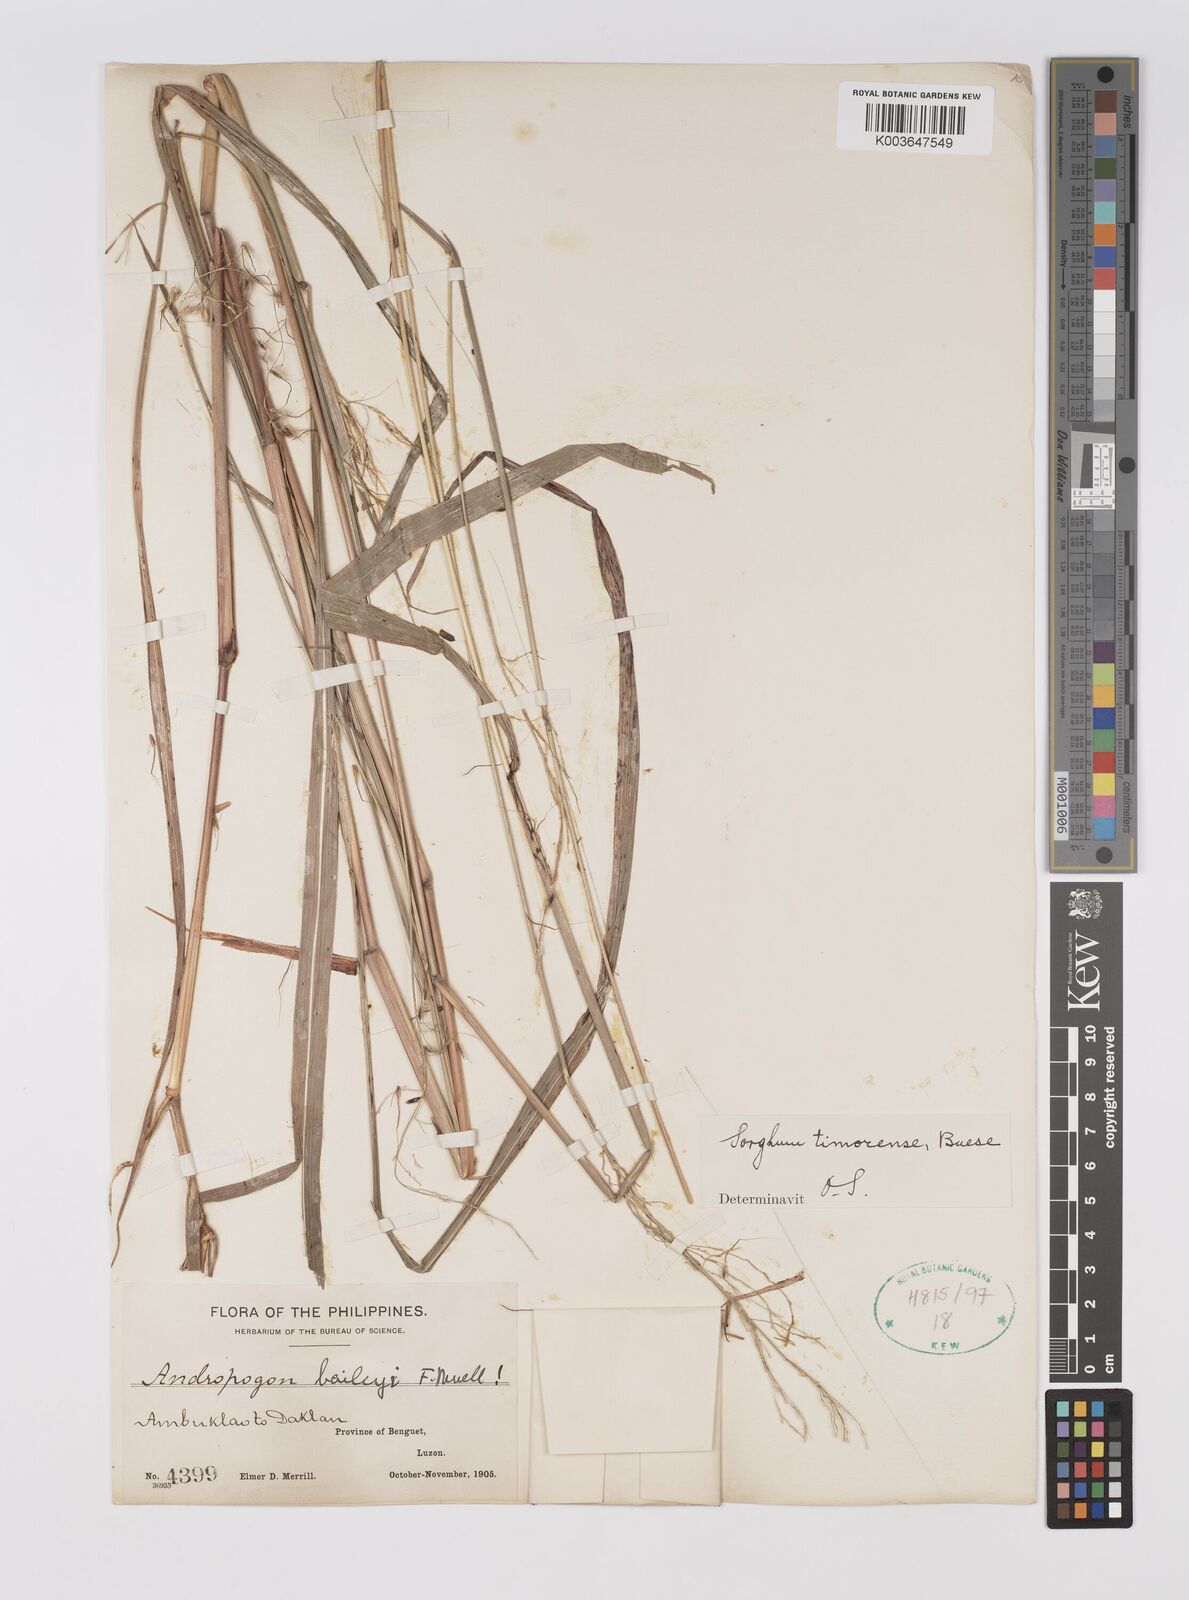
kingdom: Plantae
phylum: Tracheophyta
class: Liliopsida
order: Poales
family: Poaceae
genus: Sarga
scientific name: Sarga timorensis
